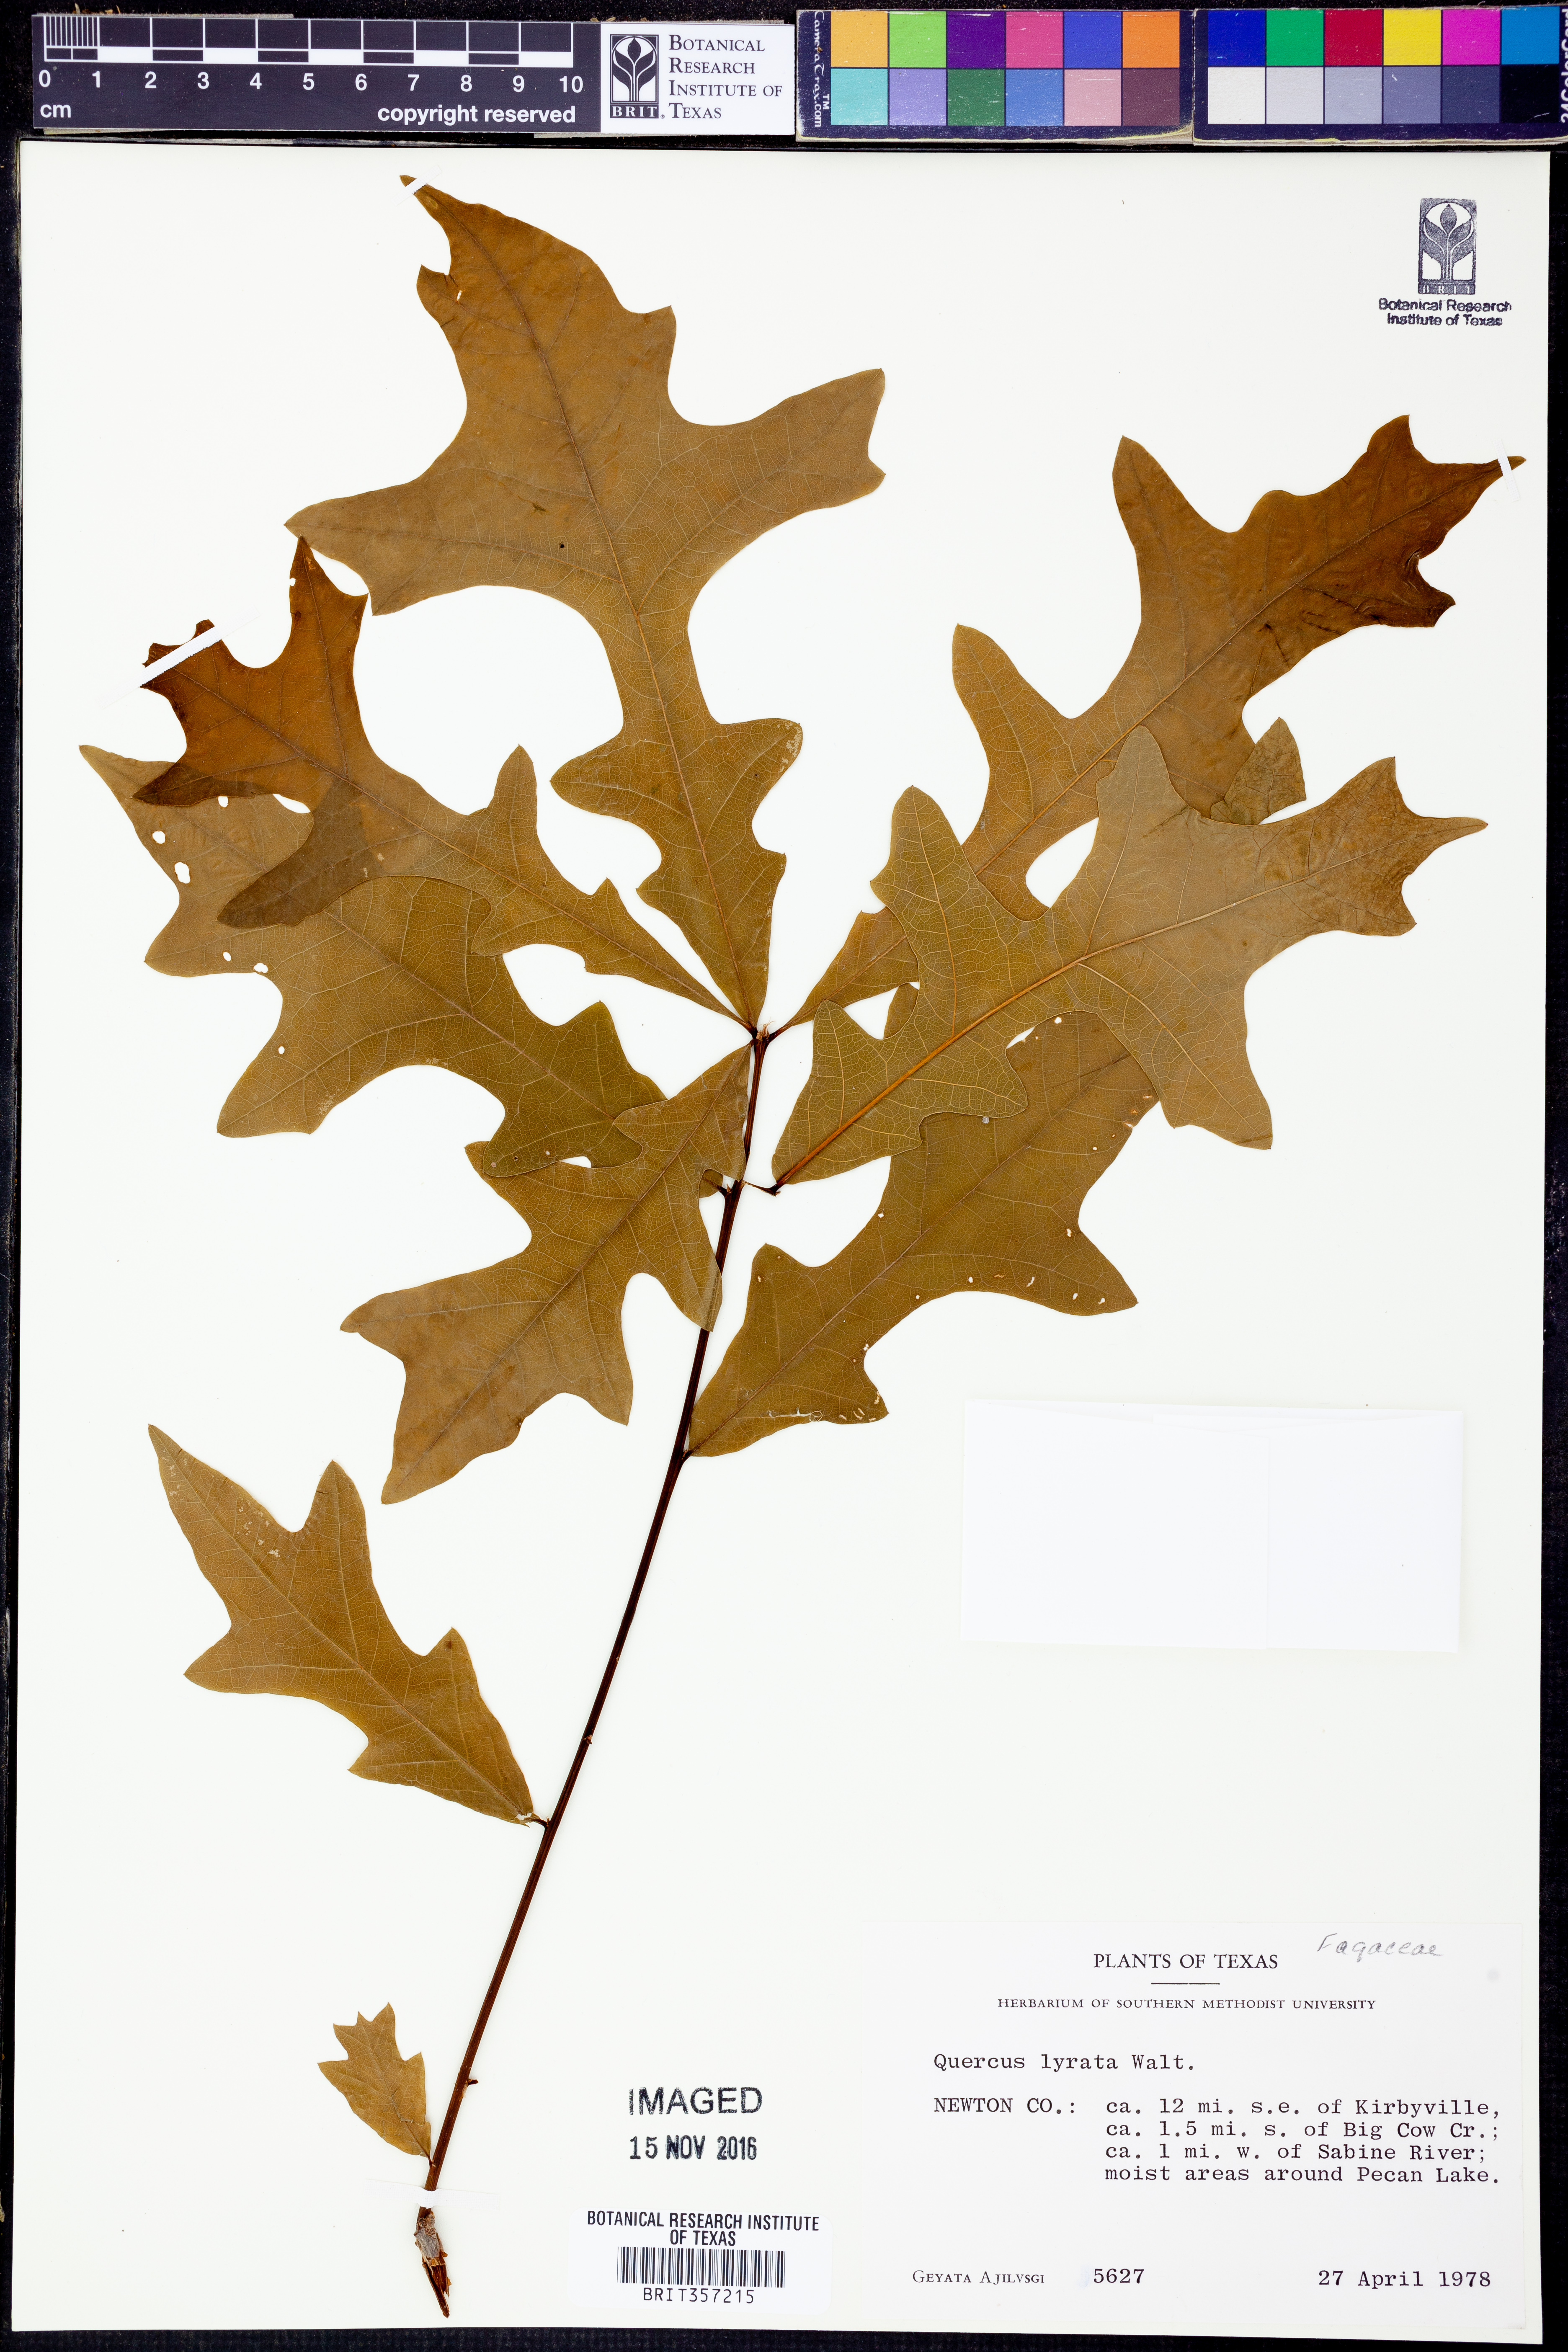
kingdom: Plantae
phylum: Tracheophyta
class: Magnoliopsida
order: Fagales
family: Fagaceae
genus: Quercus
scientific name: Quercus lyrata
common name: Overcup oak
